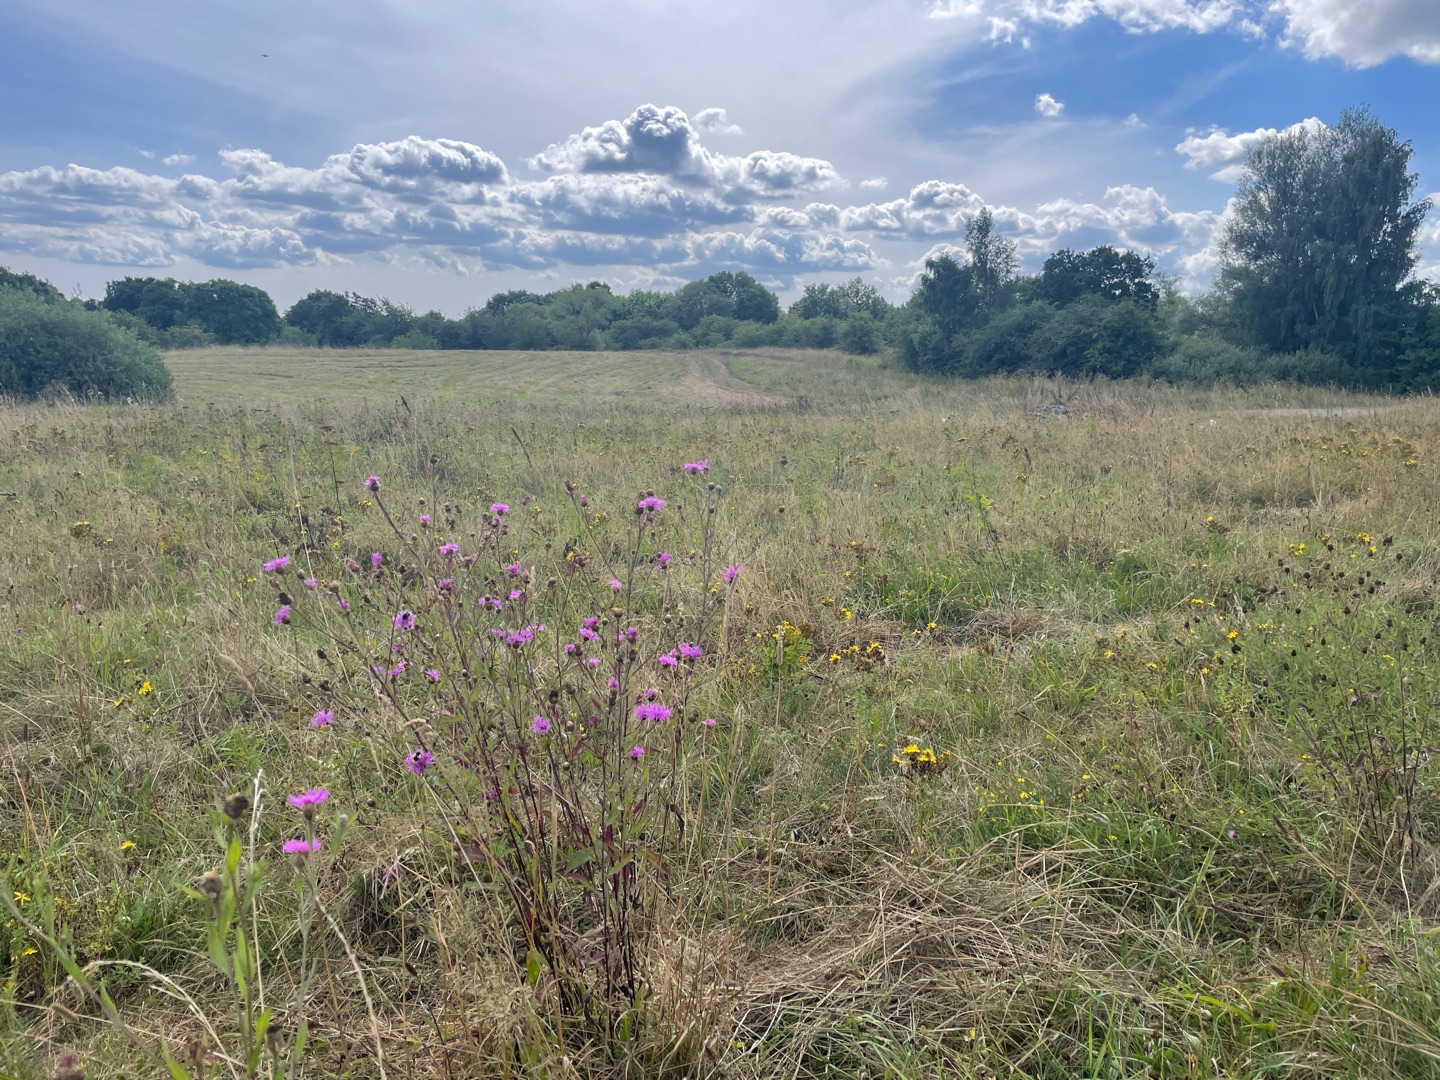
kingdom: Plantae
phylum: Tracheophyta
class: Magnoliopsida
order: Asterales
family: Asteraceae
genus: Centaurea
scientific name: Centaurea
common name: Knopurtslægten
